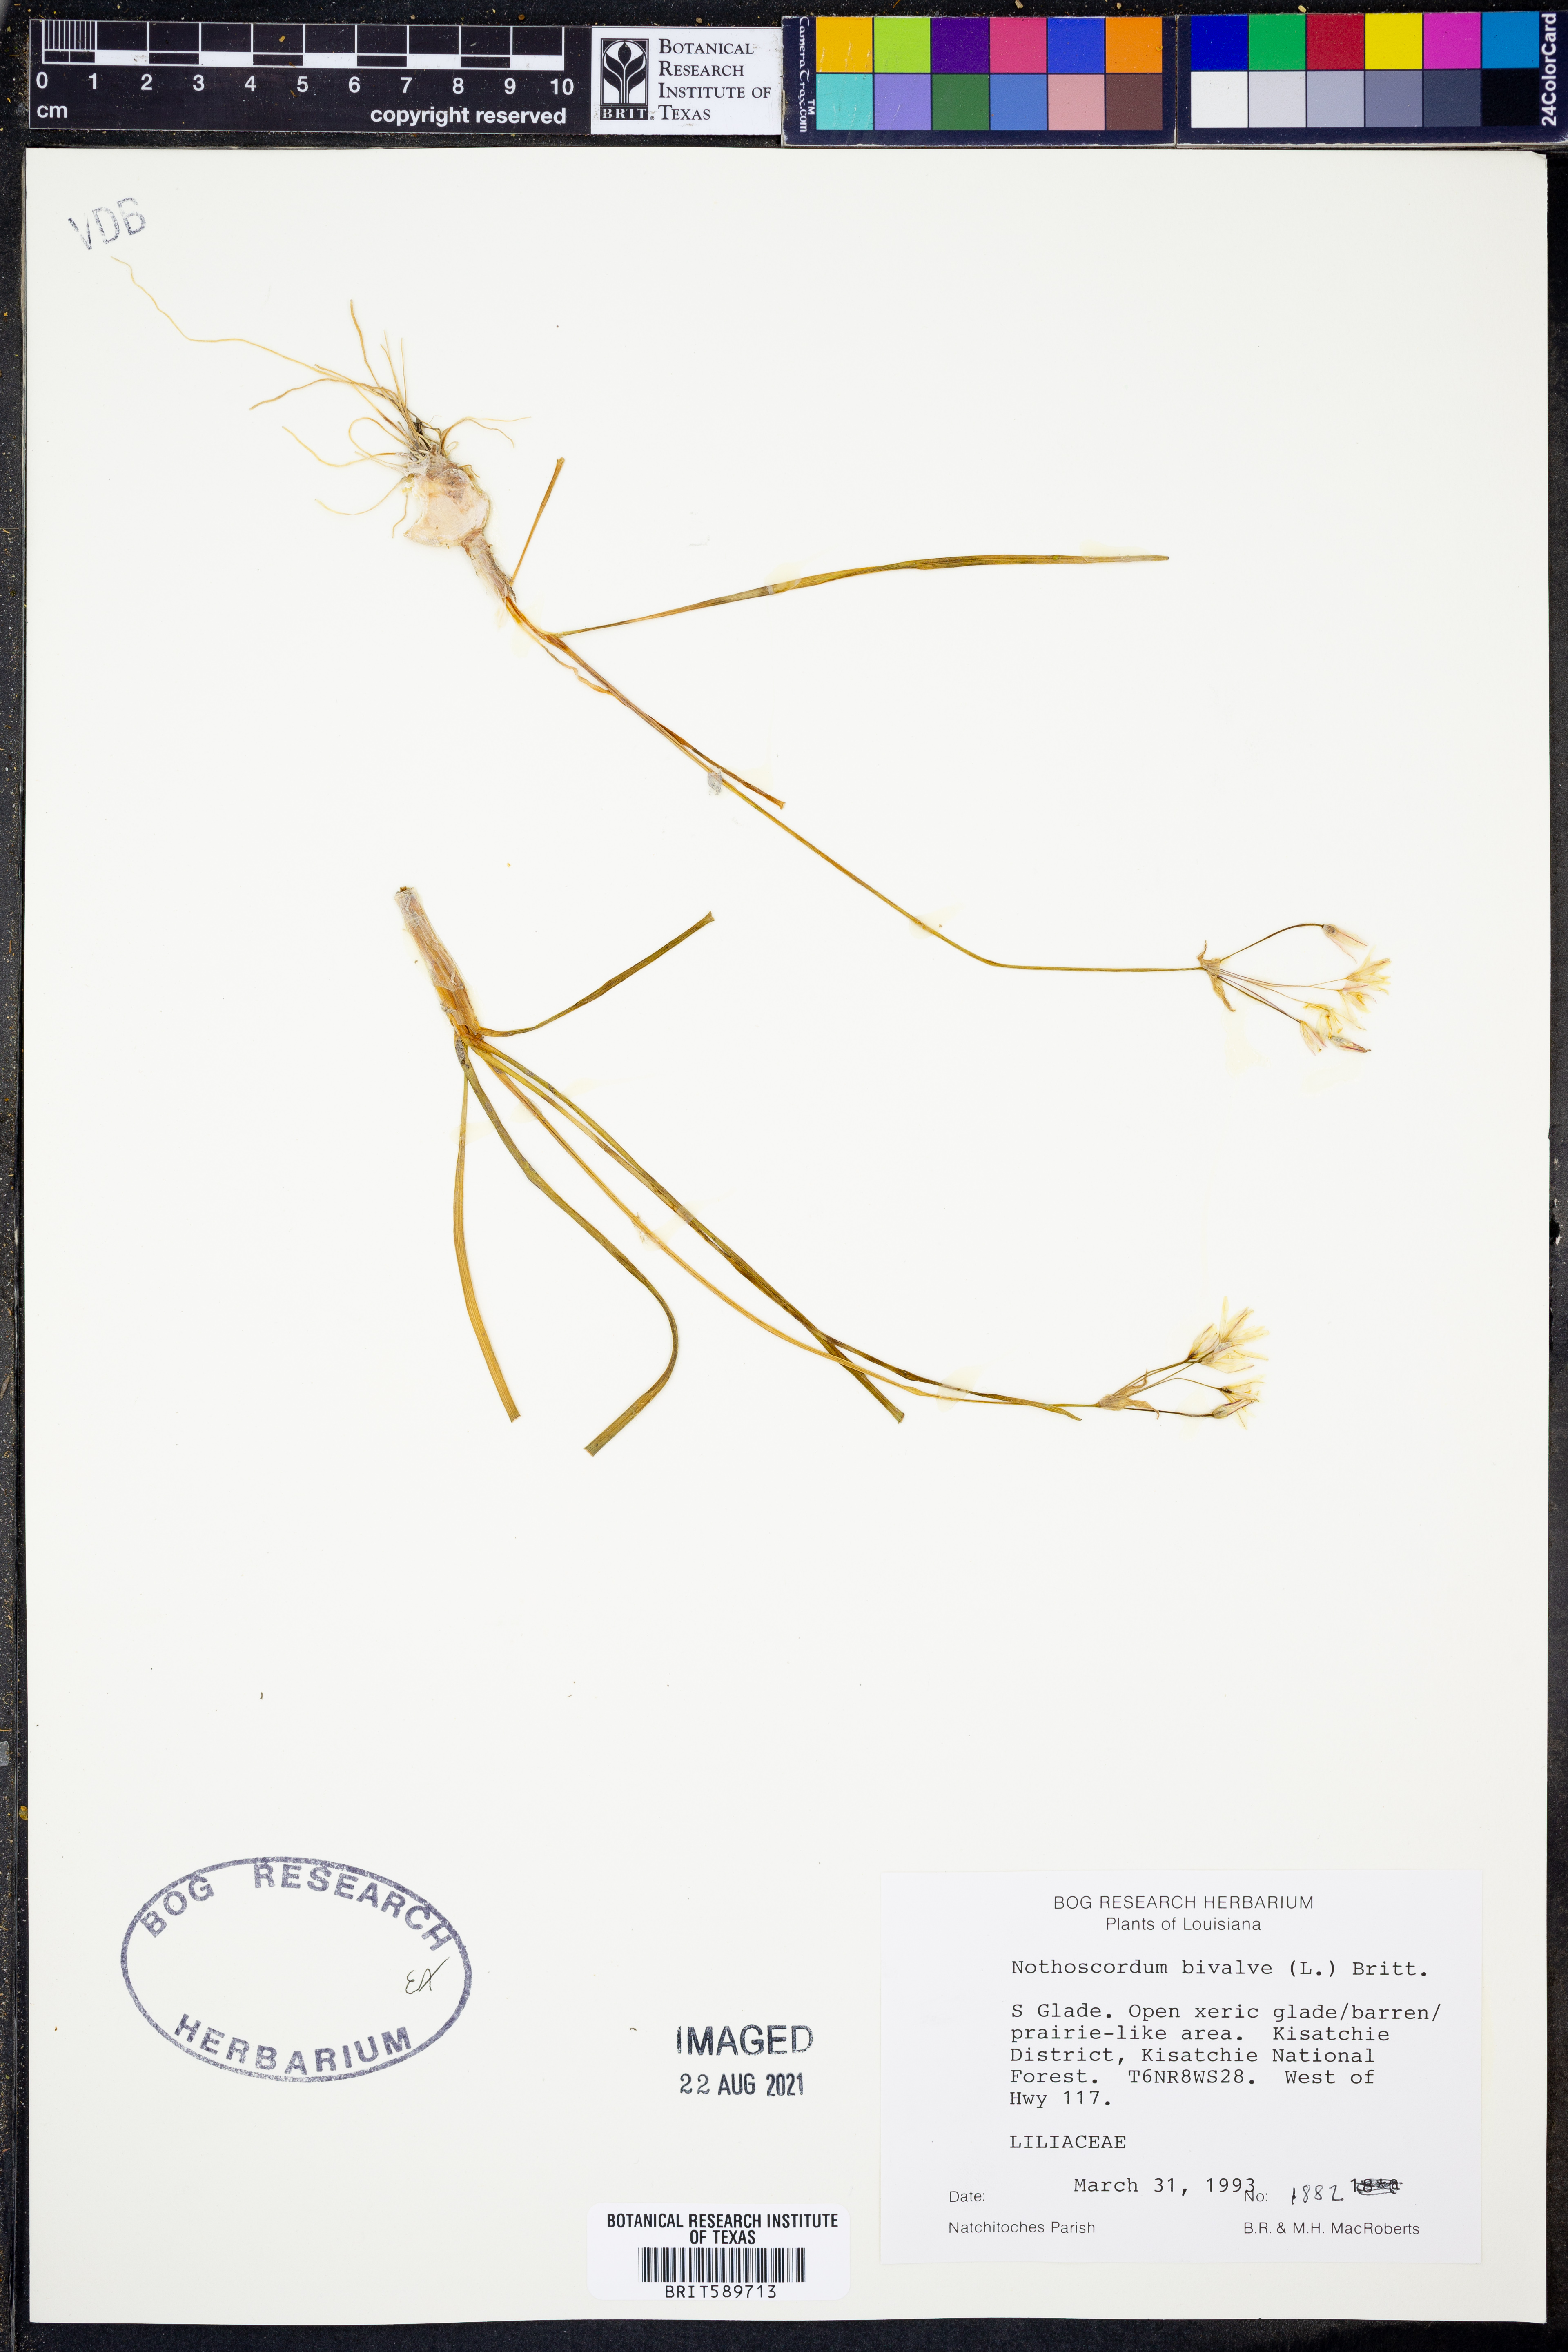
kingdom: Plantae
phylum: Tracheophyta
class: Liliopsida
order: Asparagales
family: Amaryllidaceae
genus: Nothoscordum
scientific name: Nothoscordum bivalve
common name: Crow-poison
